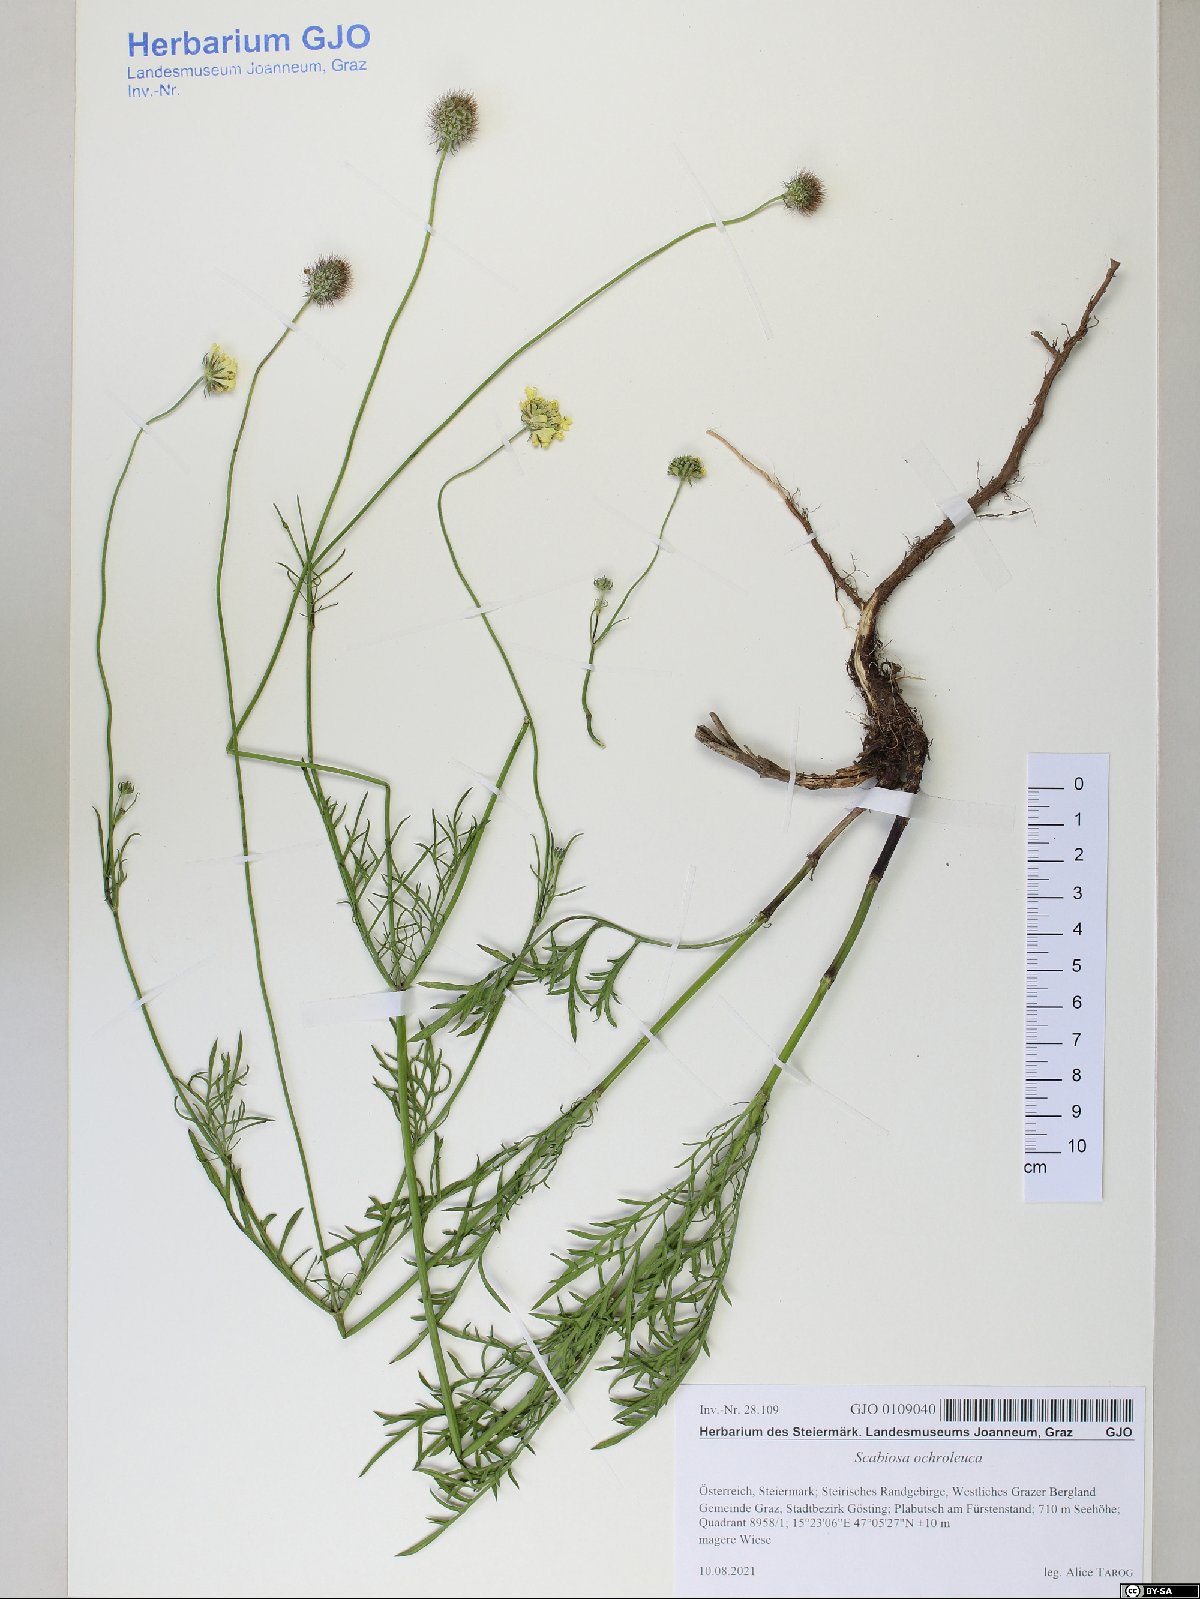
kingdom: Plantae
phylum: Tracheophyta
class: Magnoliopsida
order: Dipsacales
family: Caprifoliaceae
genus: Scabiosa
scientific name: Scabiosa ochroleuca
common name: Cream pincushions
